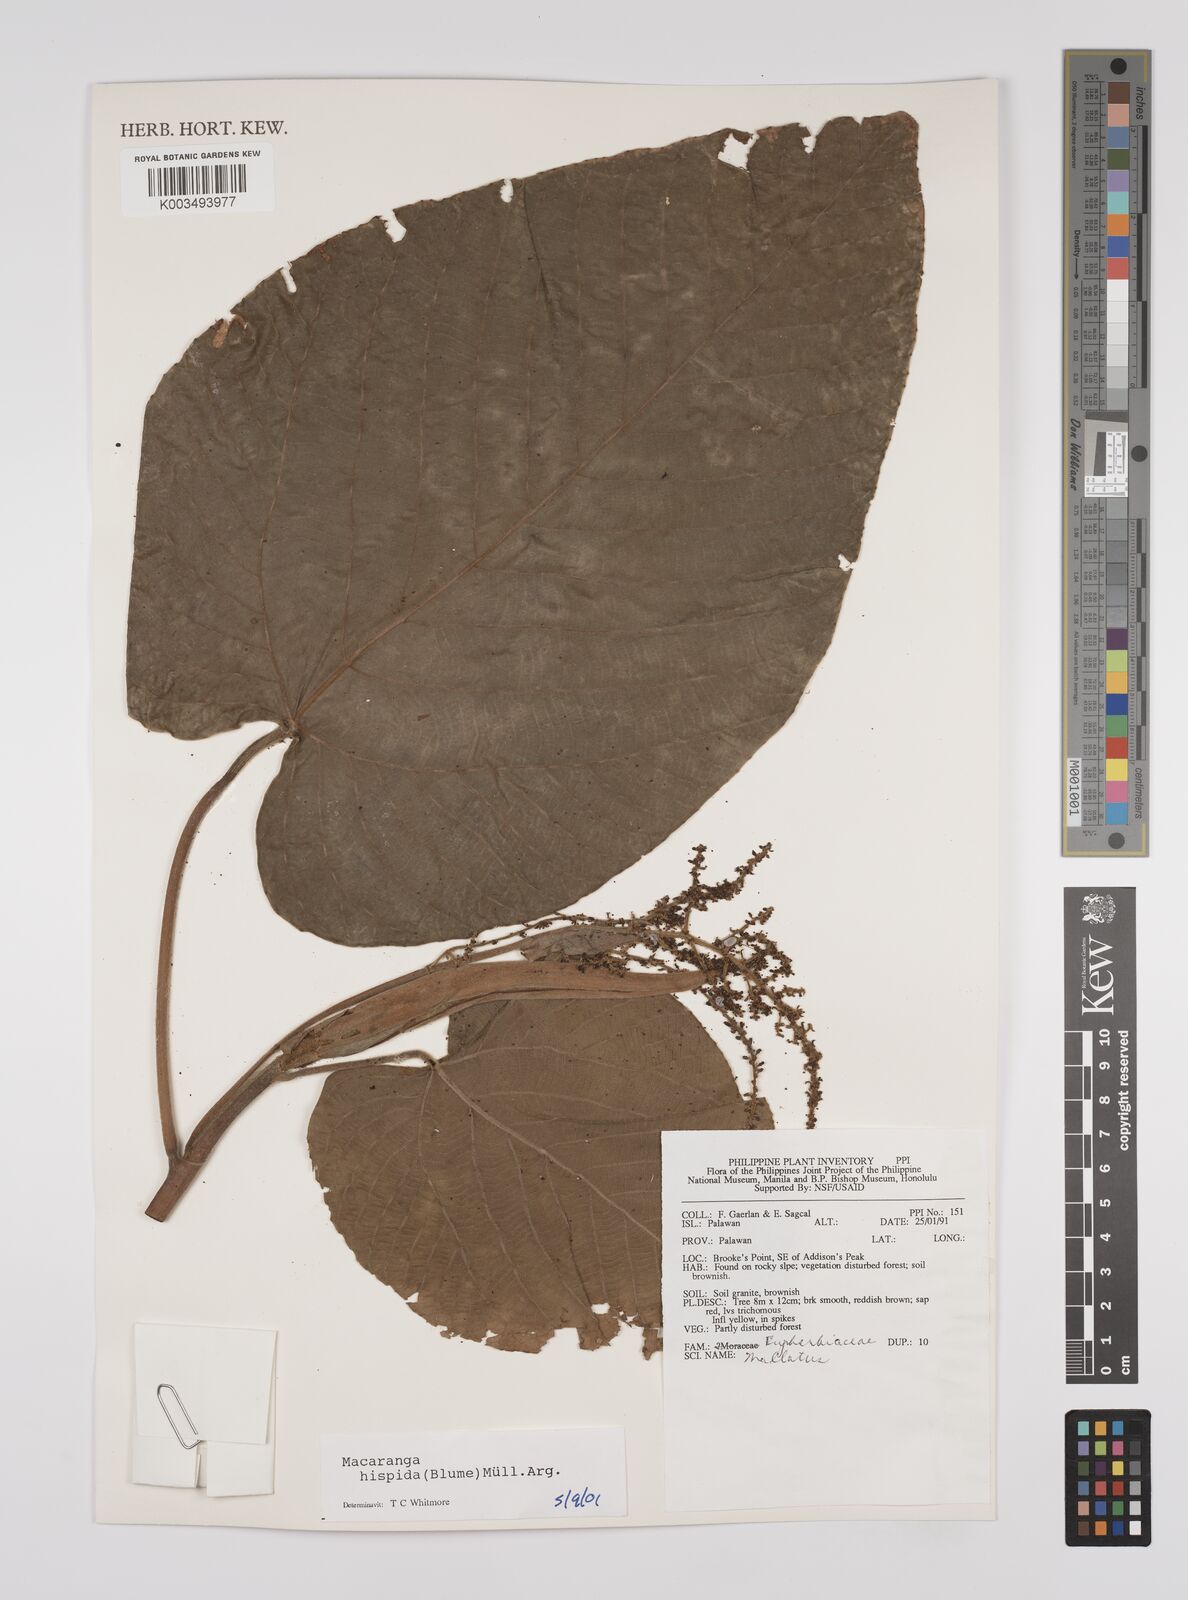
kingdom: Plantae
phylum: Tracheophyta
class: Magnoliopsida
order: Malpighiales
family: Euphorbiaceae
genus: Macaranga
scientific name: Macaranga hispida
